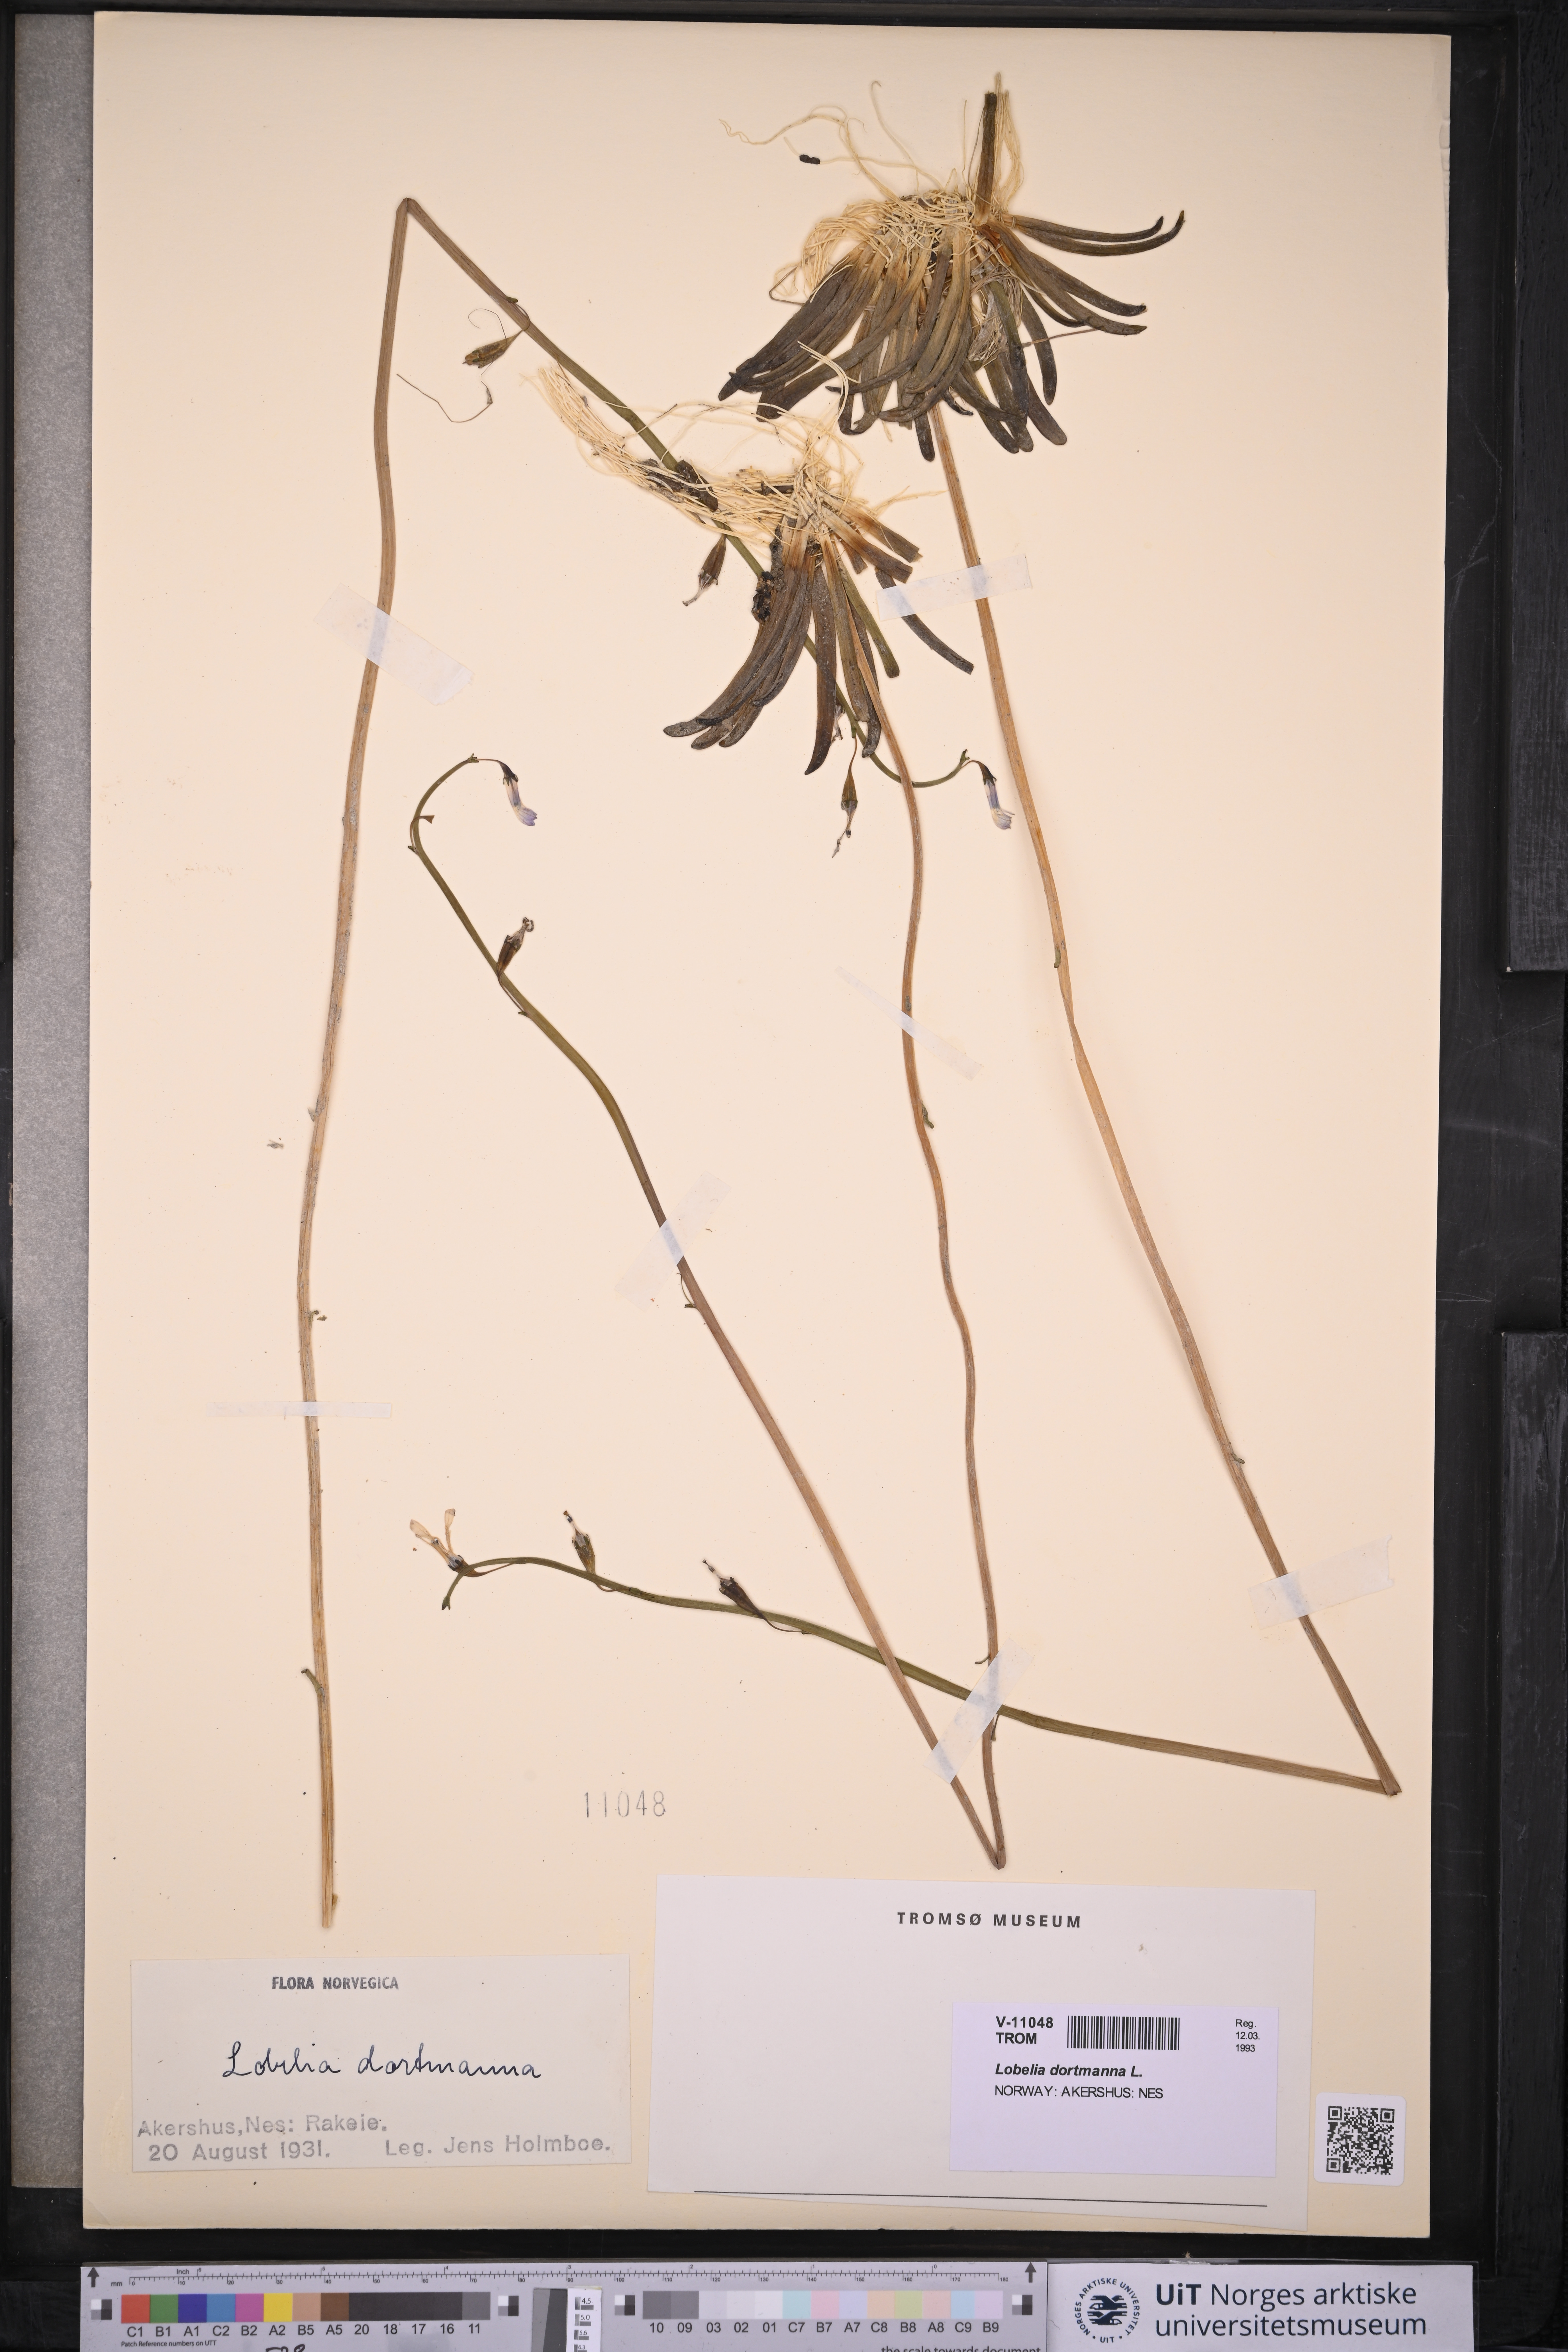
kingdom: Plantae
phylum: Tracheophyta
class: Magnoliopsida
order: Asterales
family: Campanulaceae
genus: Lobelia
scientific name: Lobelia dortmanna
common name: Water lobelia
